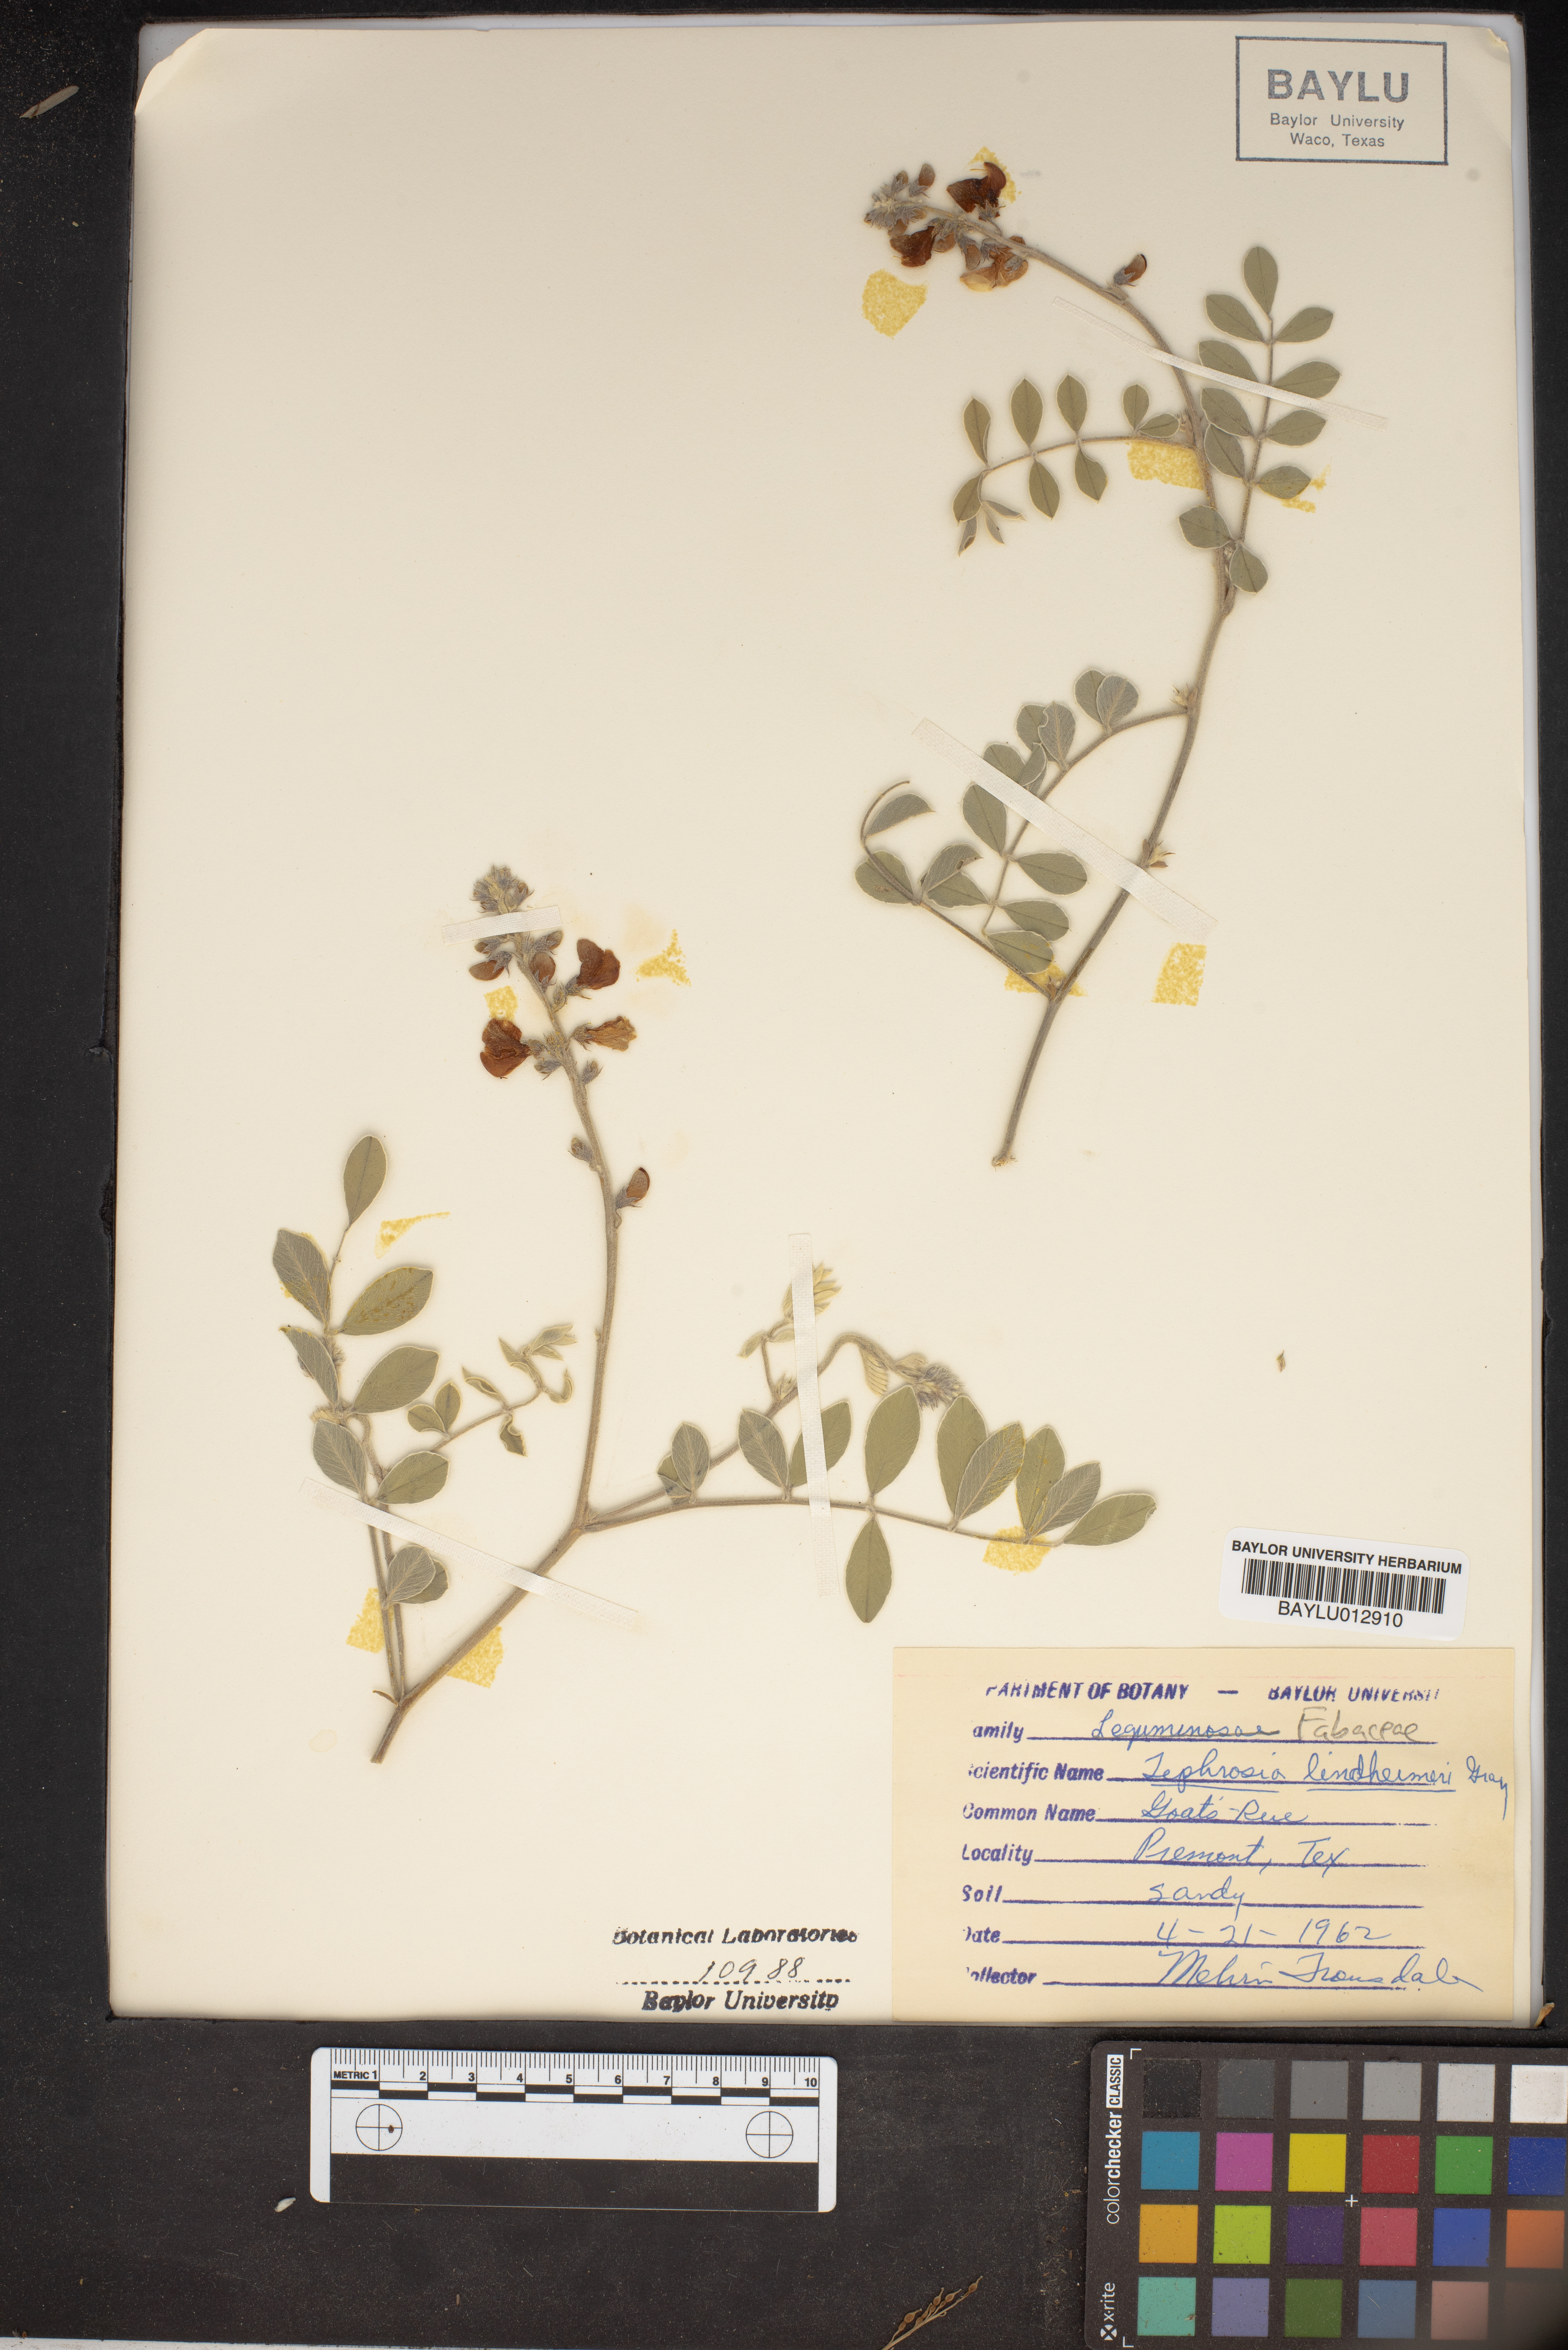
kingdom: Plantae
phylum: Tracheophyta
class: Magnoliopsida
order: Fabales
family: Fabaceae
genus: Tephrosia
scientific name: Tephrosia lindheimeri
